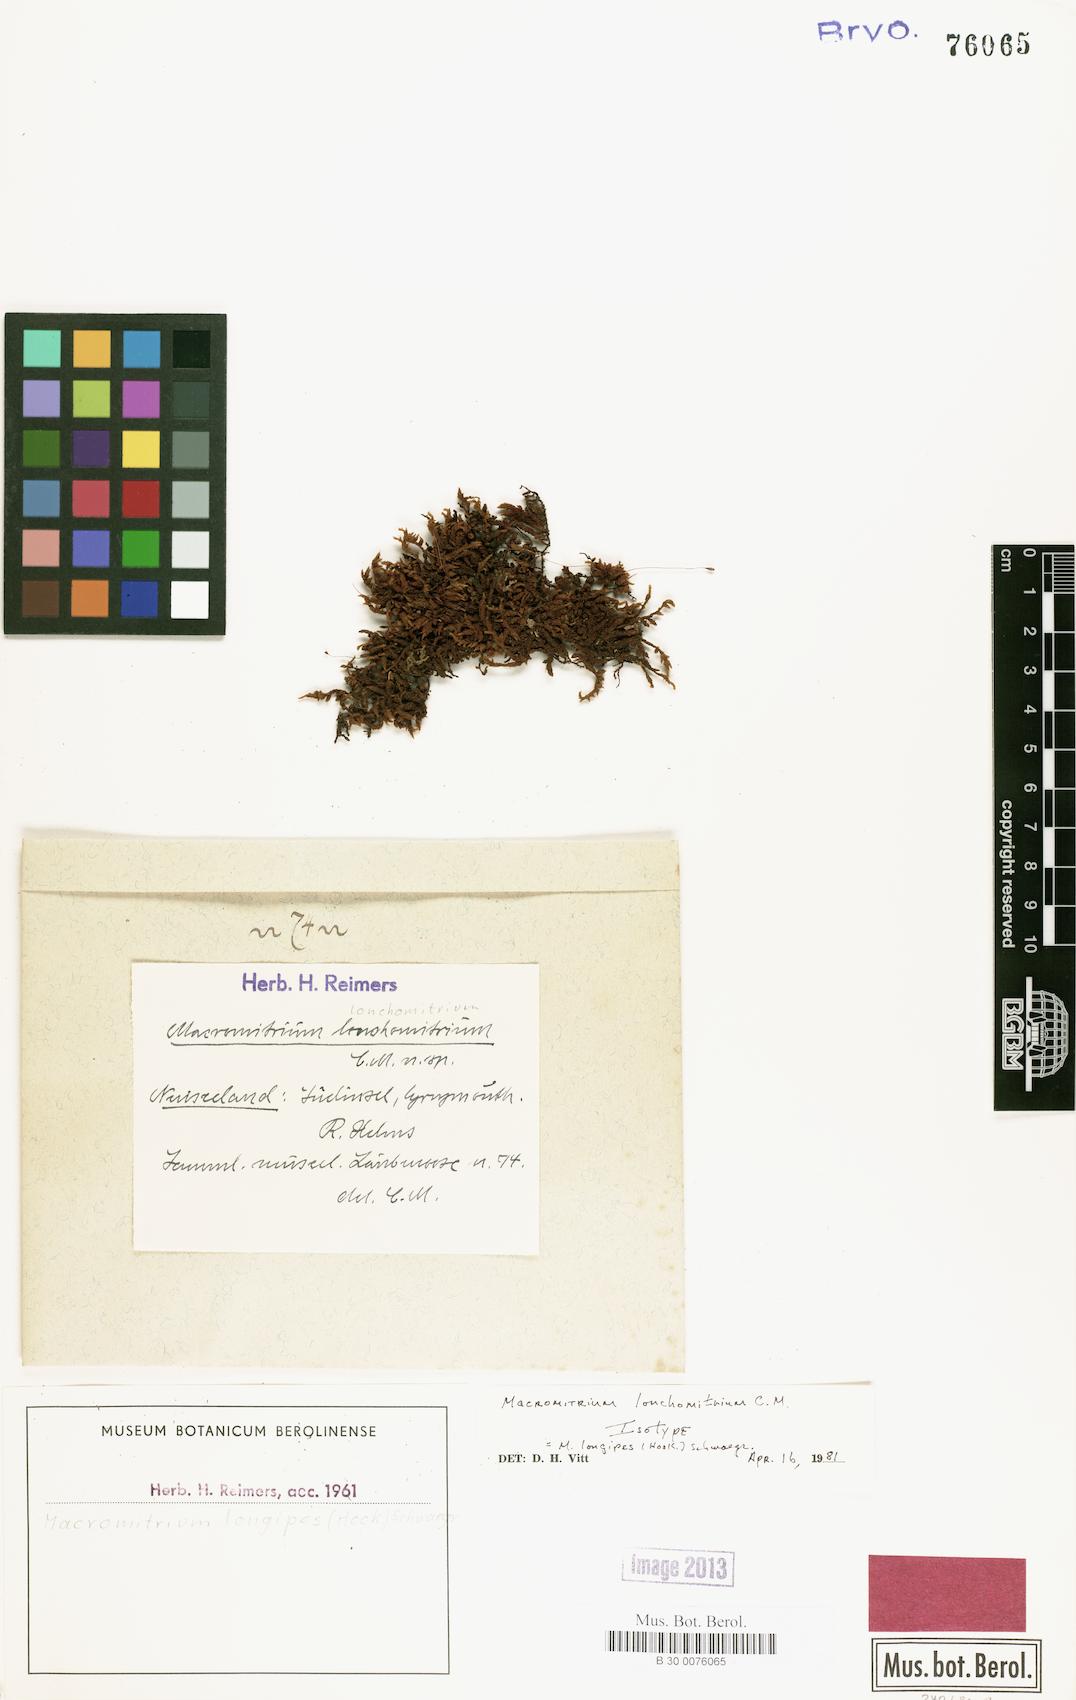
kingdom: Plantae
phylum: Bryophyta
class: Bryopsida
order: Orthotrichales
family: Orthotrichaceae
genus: Macromitrium
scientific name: Macromitrium longipes
